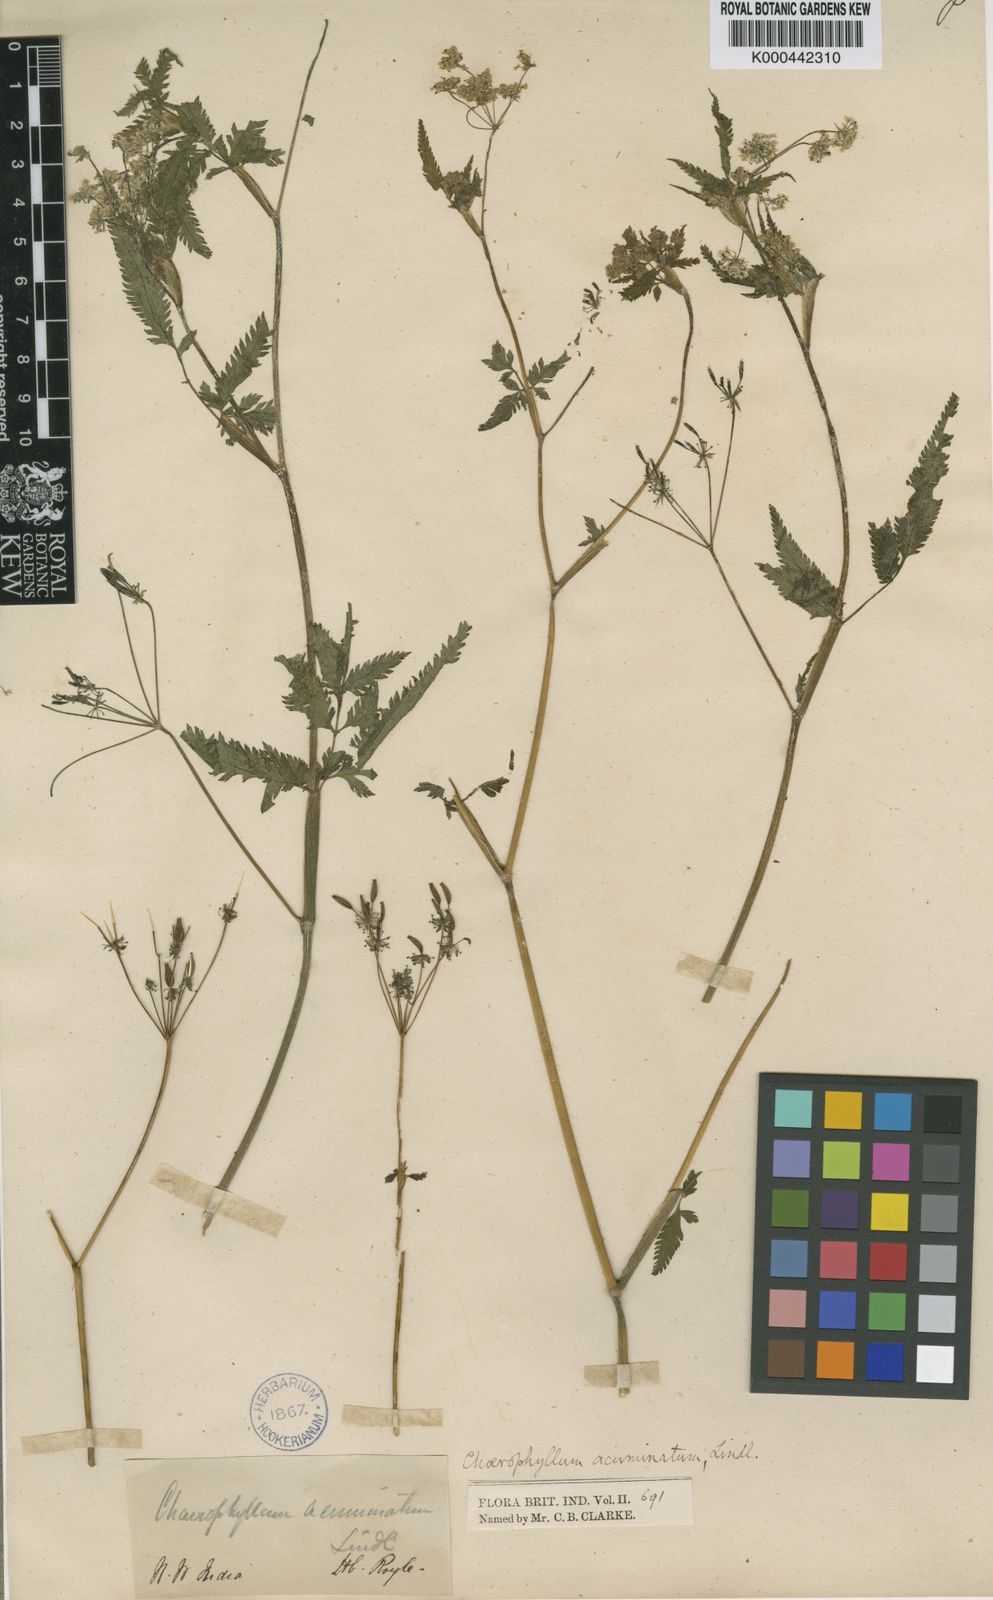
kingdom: Plantae
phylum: Tracheophyta
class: Magnoliopsida
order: Apiales
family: Apiaceae
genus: Chaerophyllum
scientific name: Chaerophyllum reflexum
